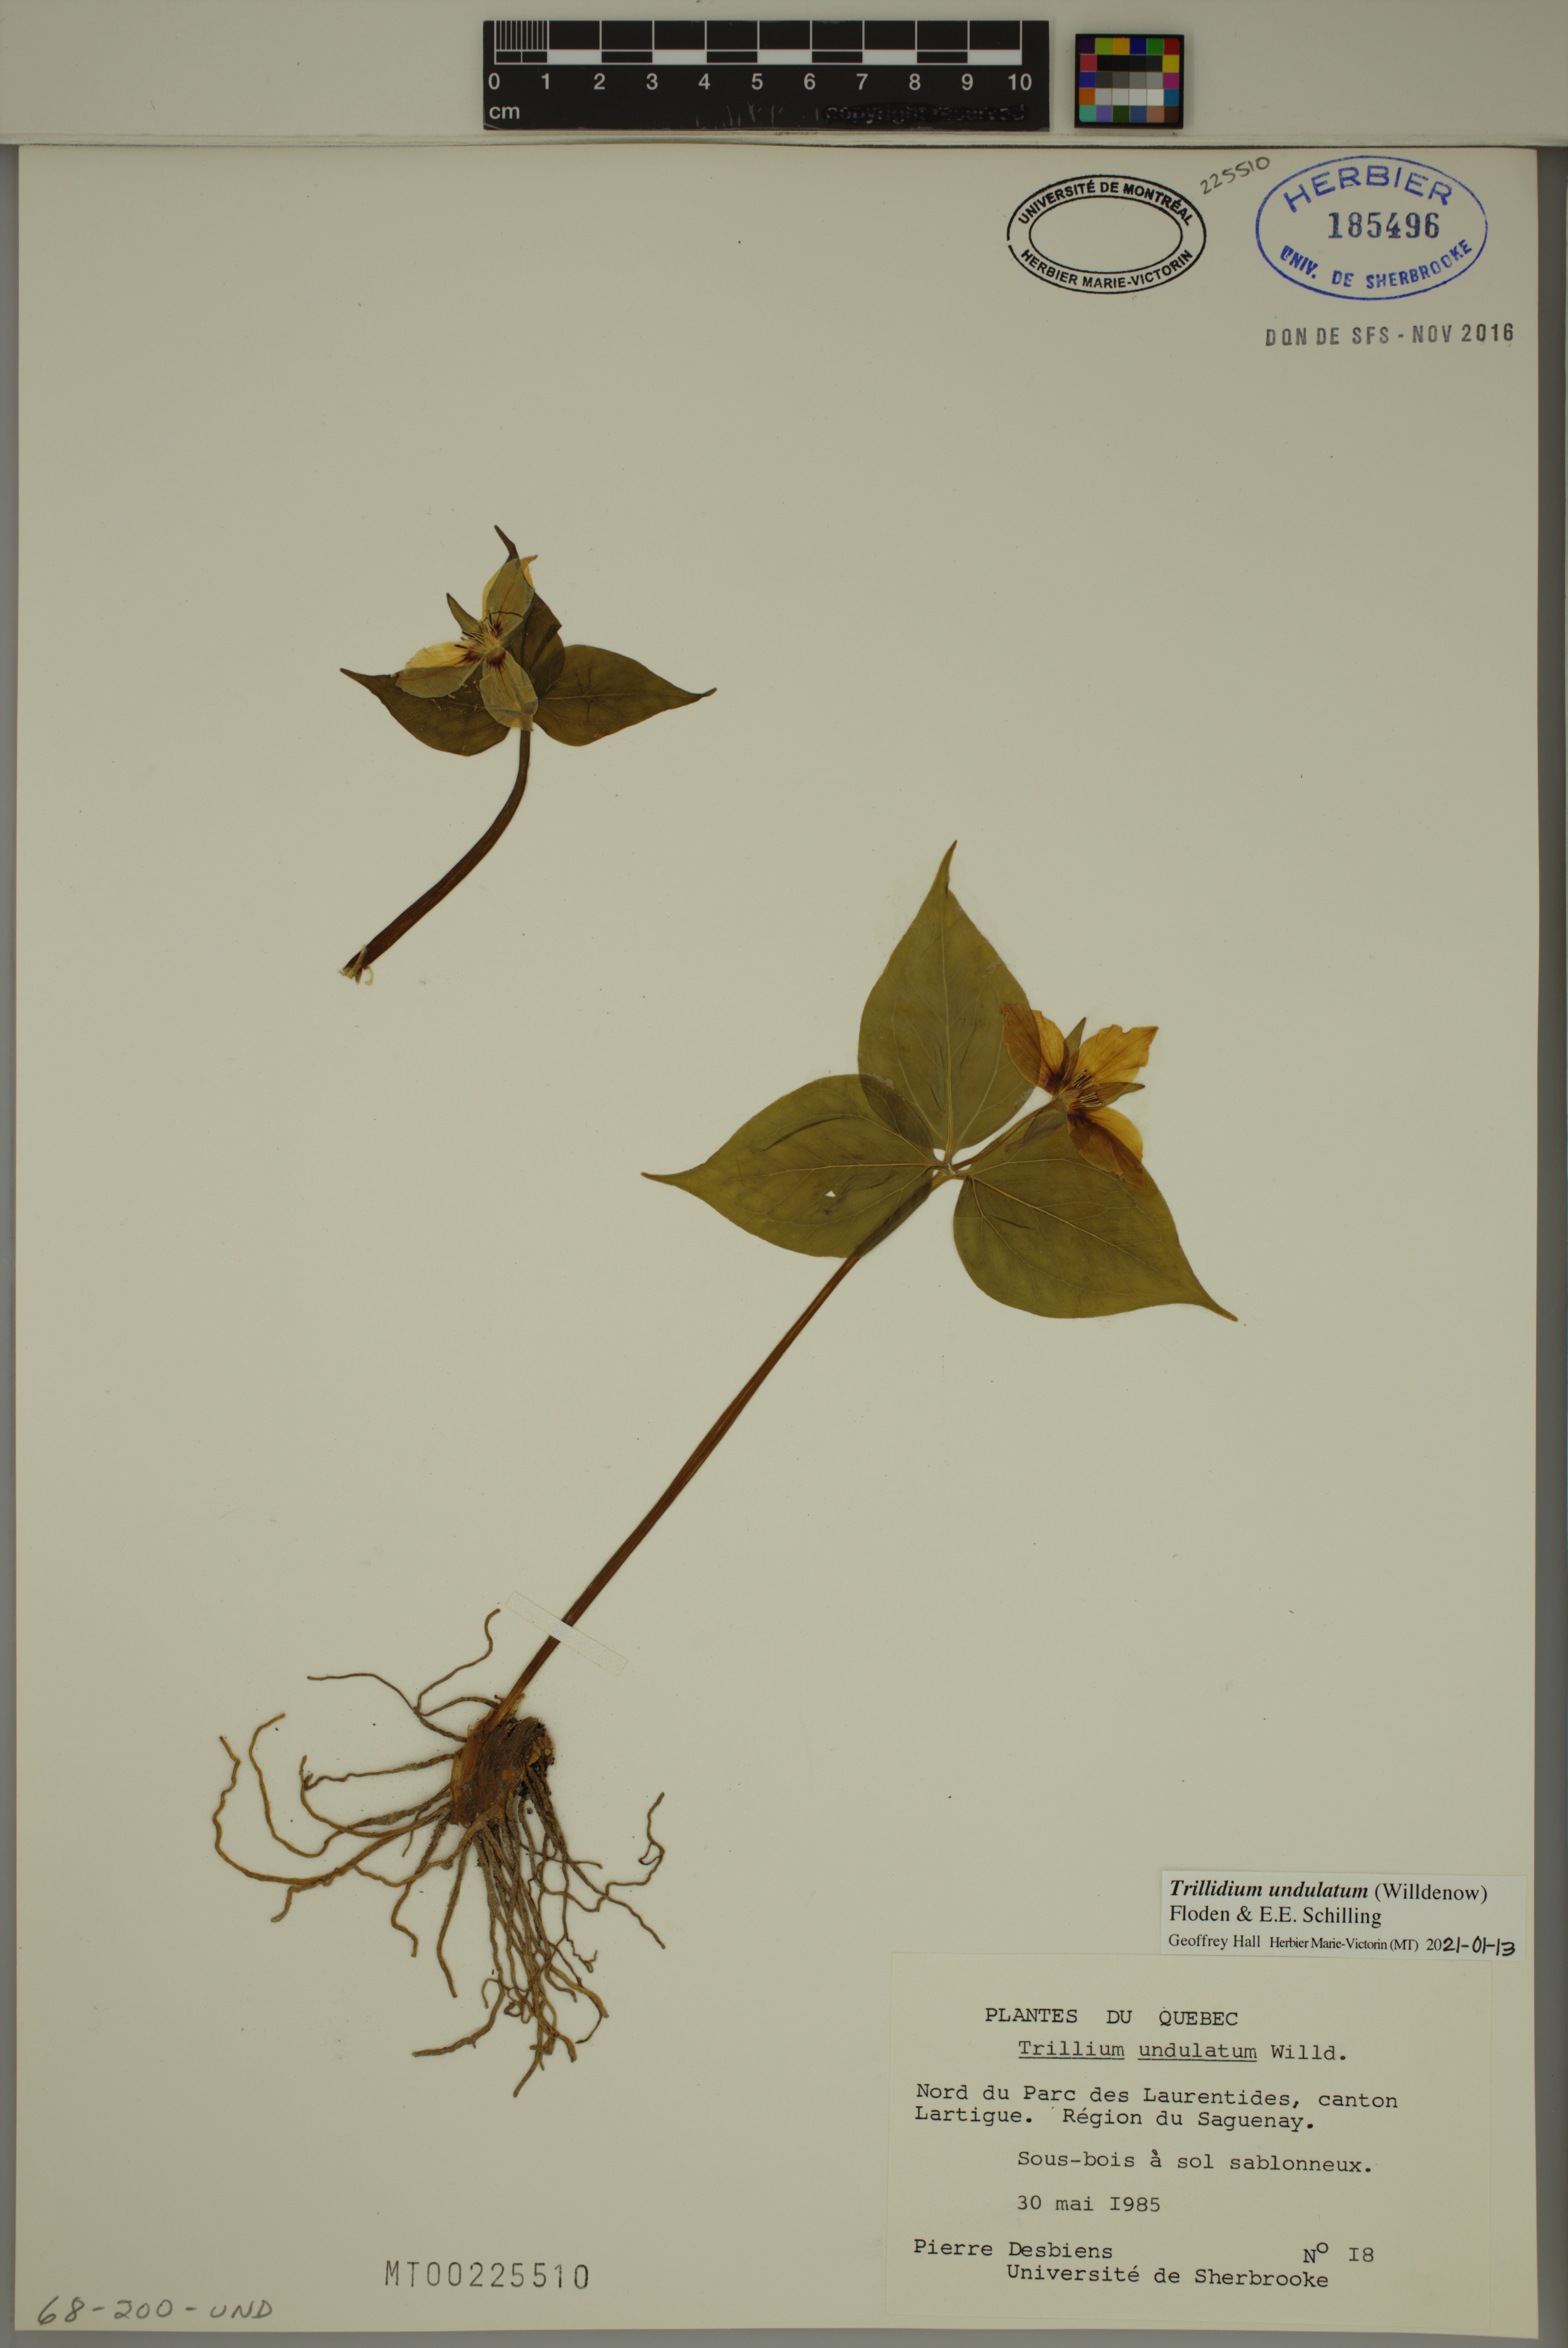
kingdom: Plantae
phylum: Tracheophyta
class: Liliopsida
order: Liliales
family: Melanthiaceae
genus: Trillium
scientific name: Trillium undulatum
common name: Paint trillium
